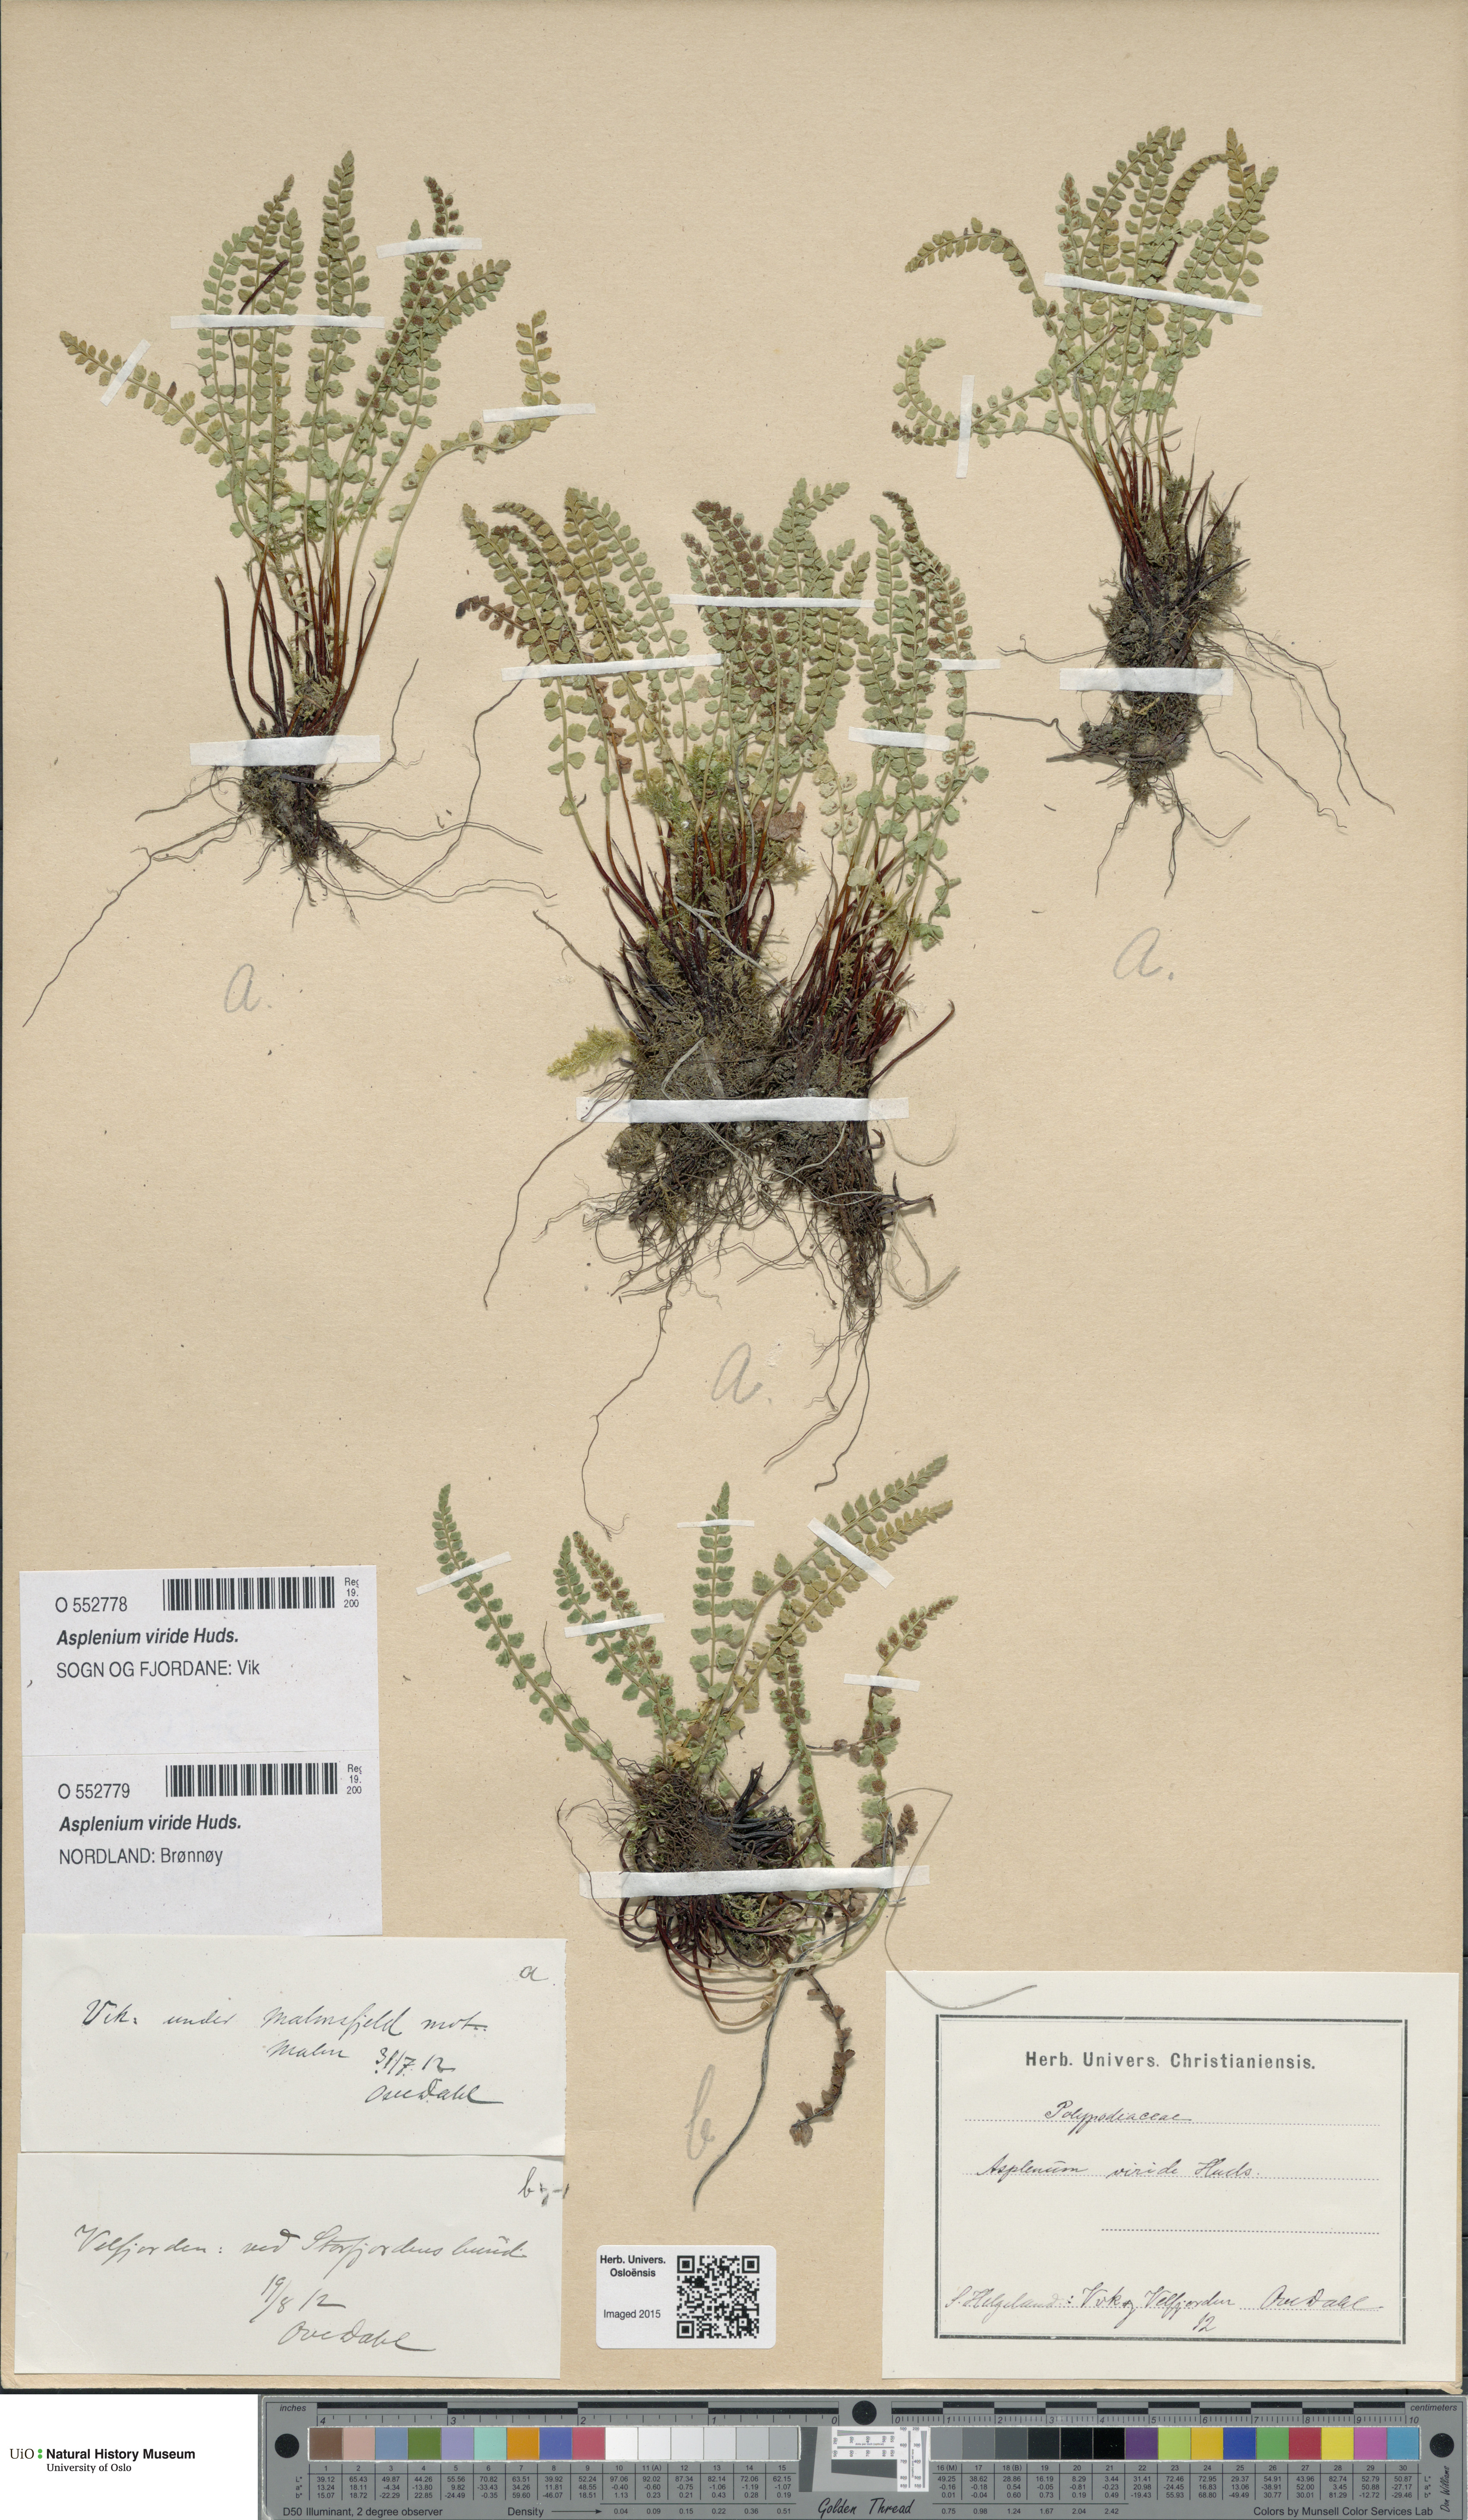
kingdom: Plantae
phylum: Tracheophyta
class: Polypodiopsida
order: Polypodiales
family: Aspleniaceae
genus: Asplenium
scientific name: Asplenium viride
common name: Green spleenwort
